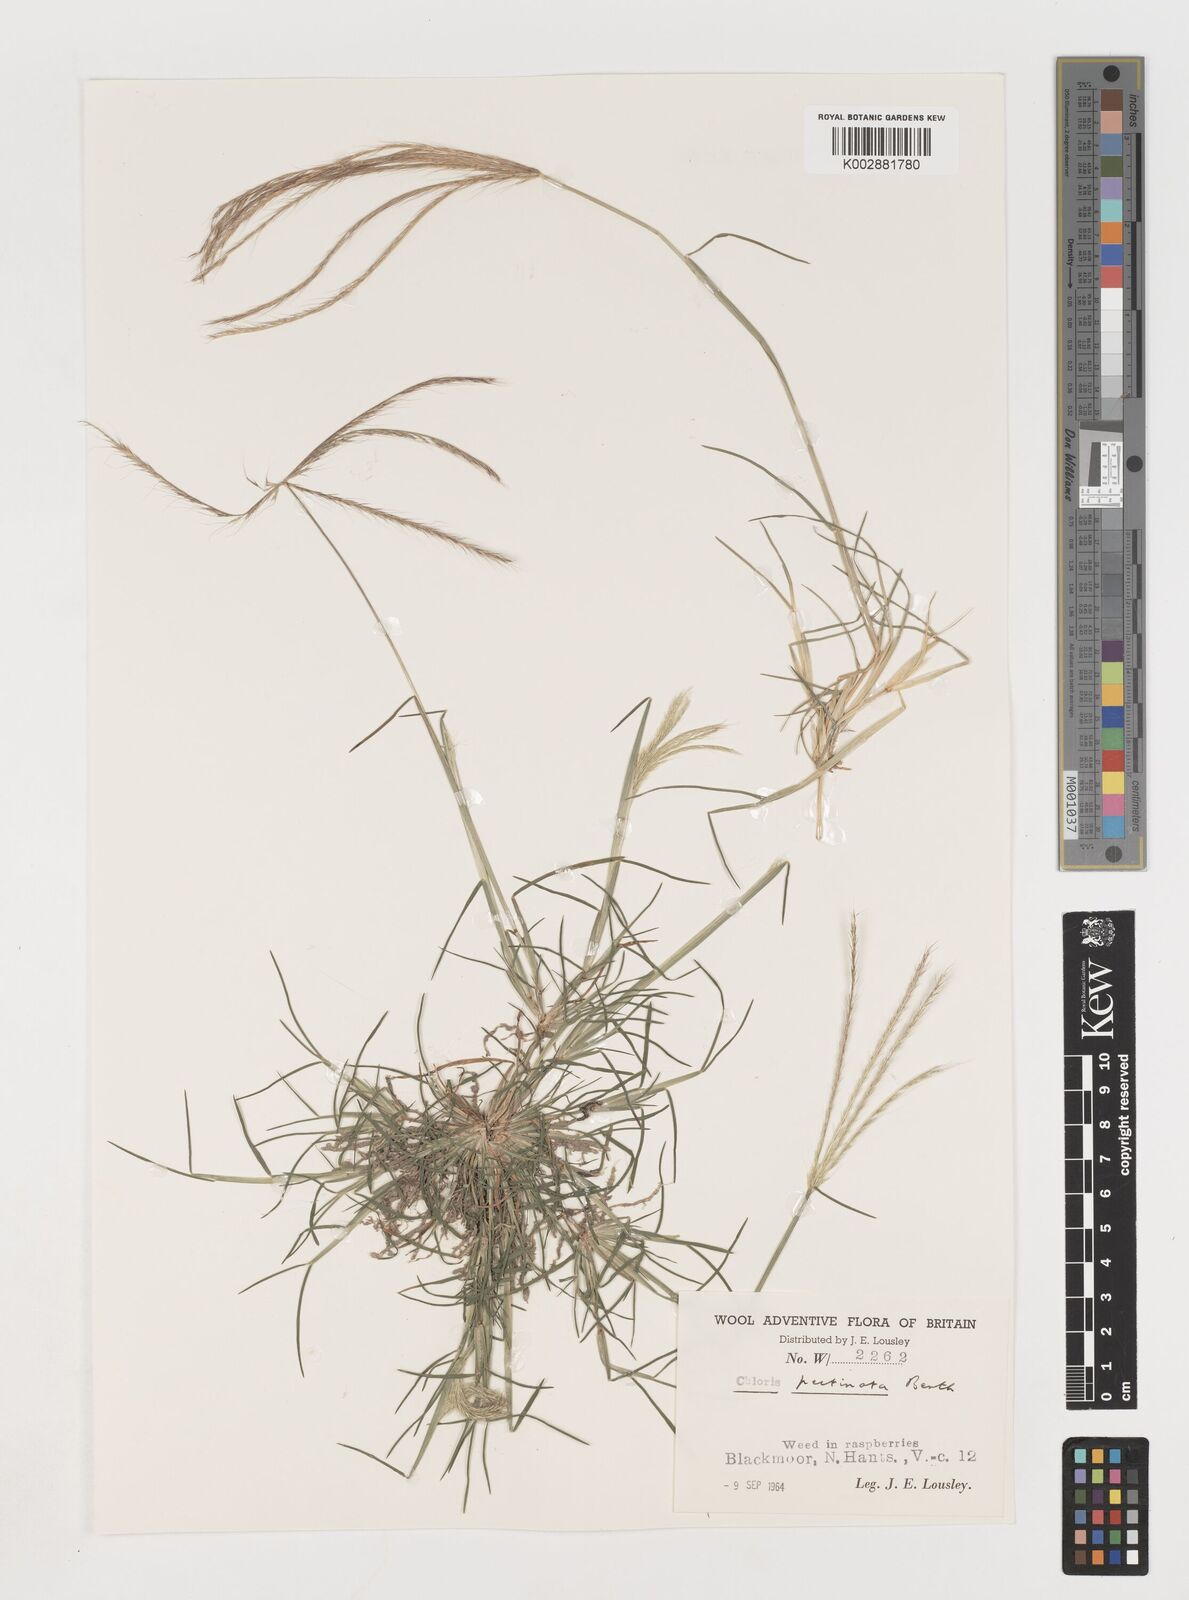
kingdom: Plantae
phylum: Tracheophyta
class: Liliopsida
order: Poales
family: Poaceae
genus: Chloris
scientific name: Chloris pectinata
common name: Comb windmill grass
